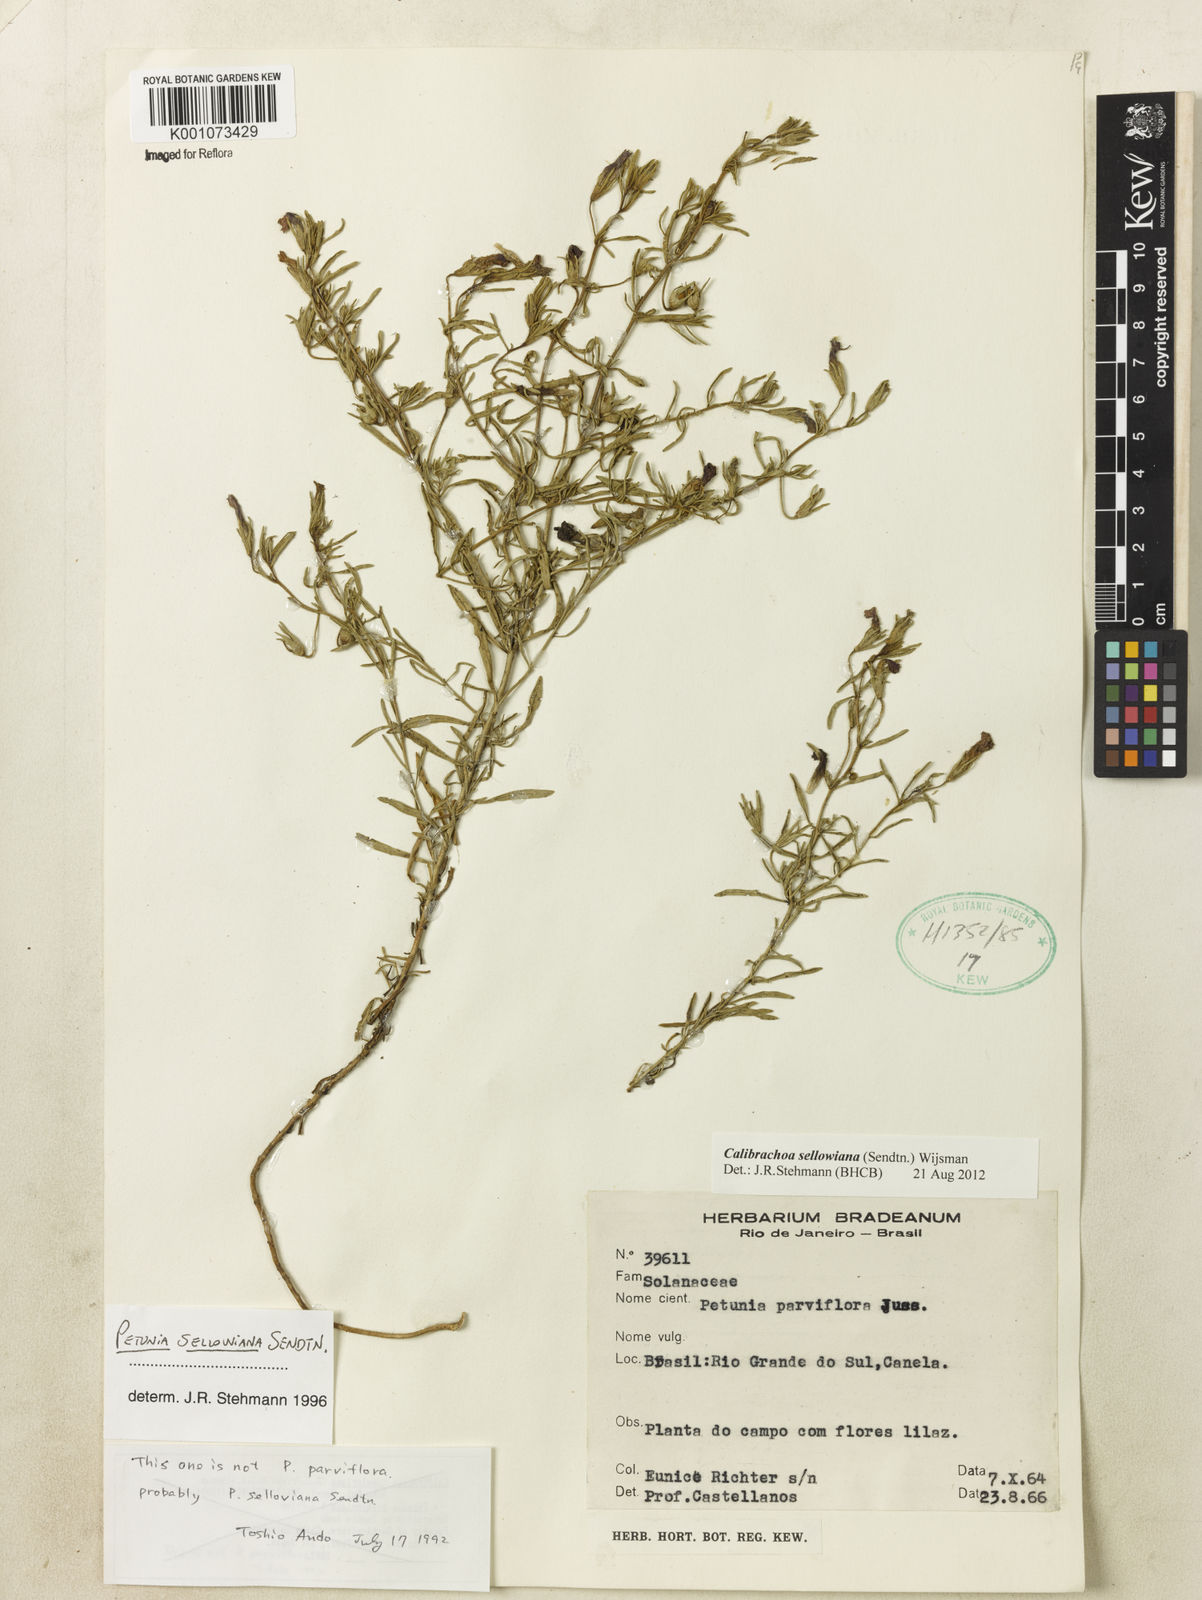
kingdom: Plantae
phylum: Tracheophyta
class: Magnoliopsida
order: Solanales
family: Solanaceae
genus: Calibrachoa
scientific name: Calibrachoa sellowiana
